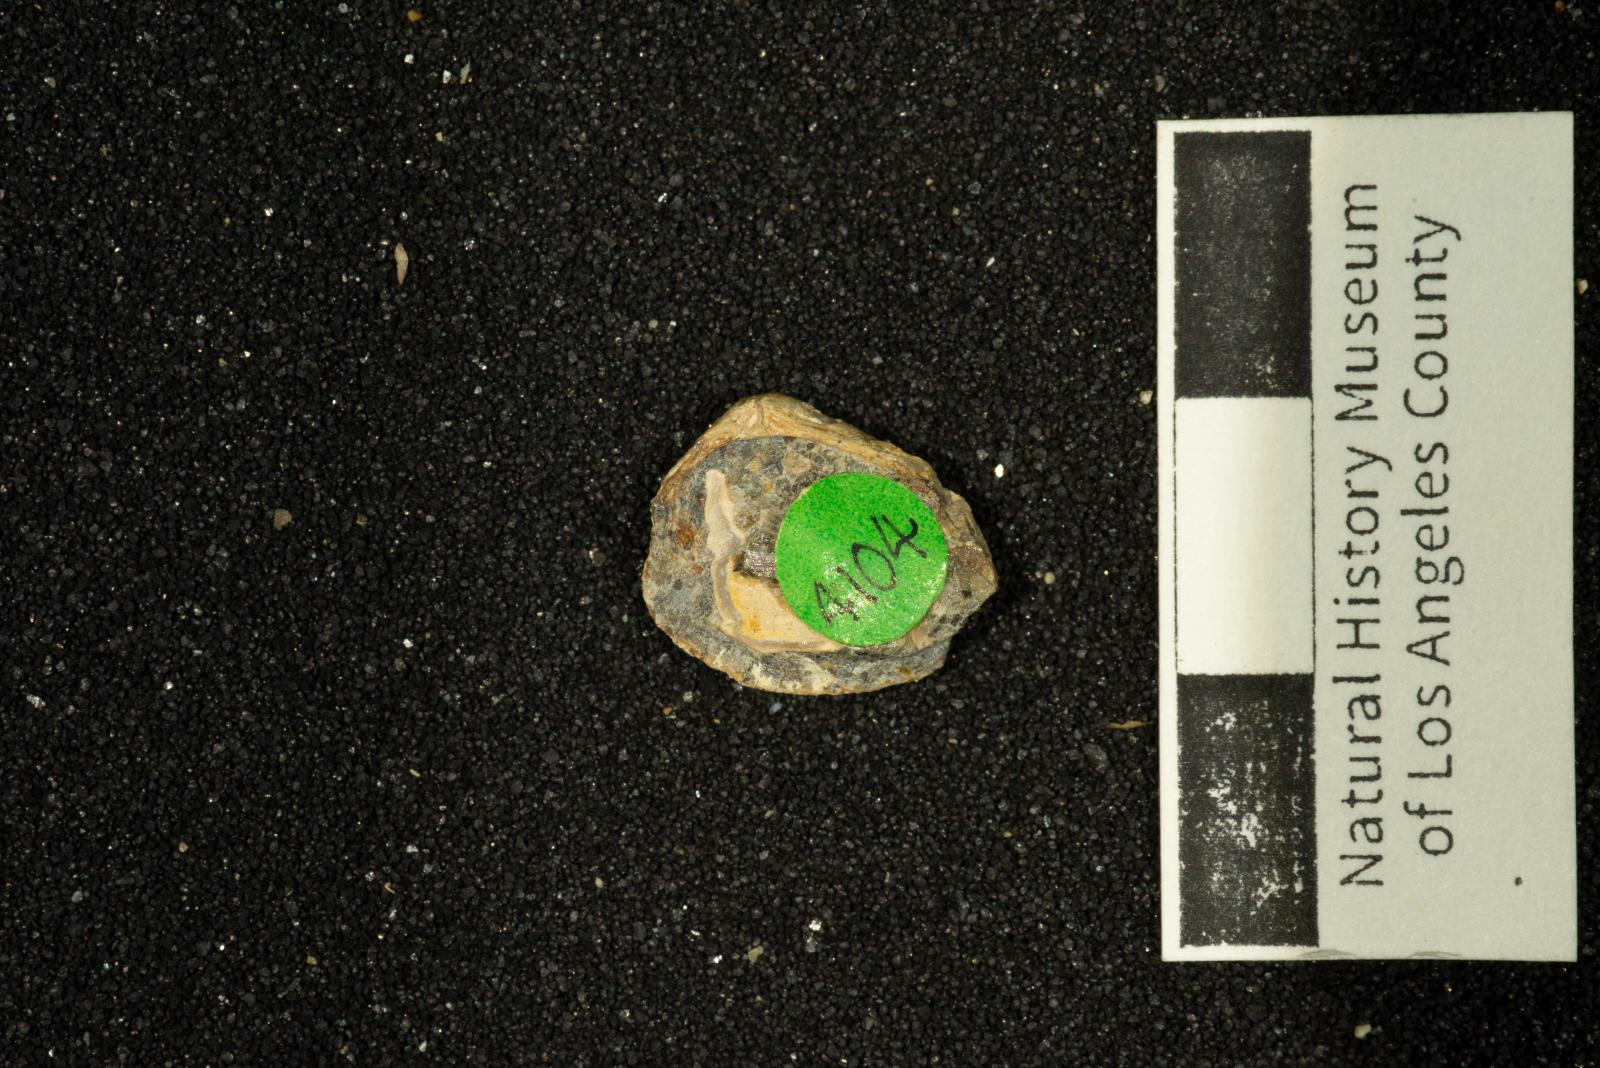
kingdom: Animalia
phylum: Mollusca
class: Bivalvia
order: Venerida
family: Mesodesmatidae
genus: Califadesma
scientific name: Califadesma aspris
